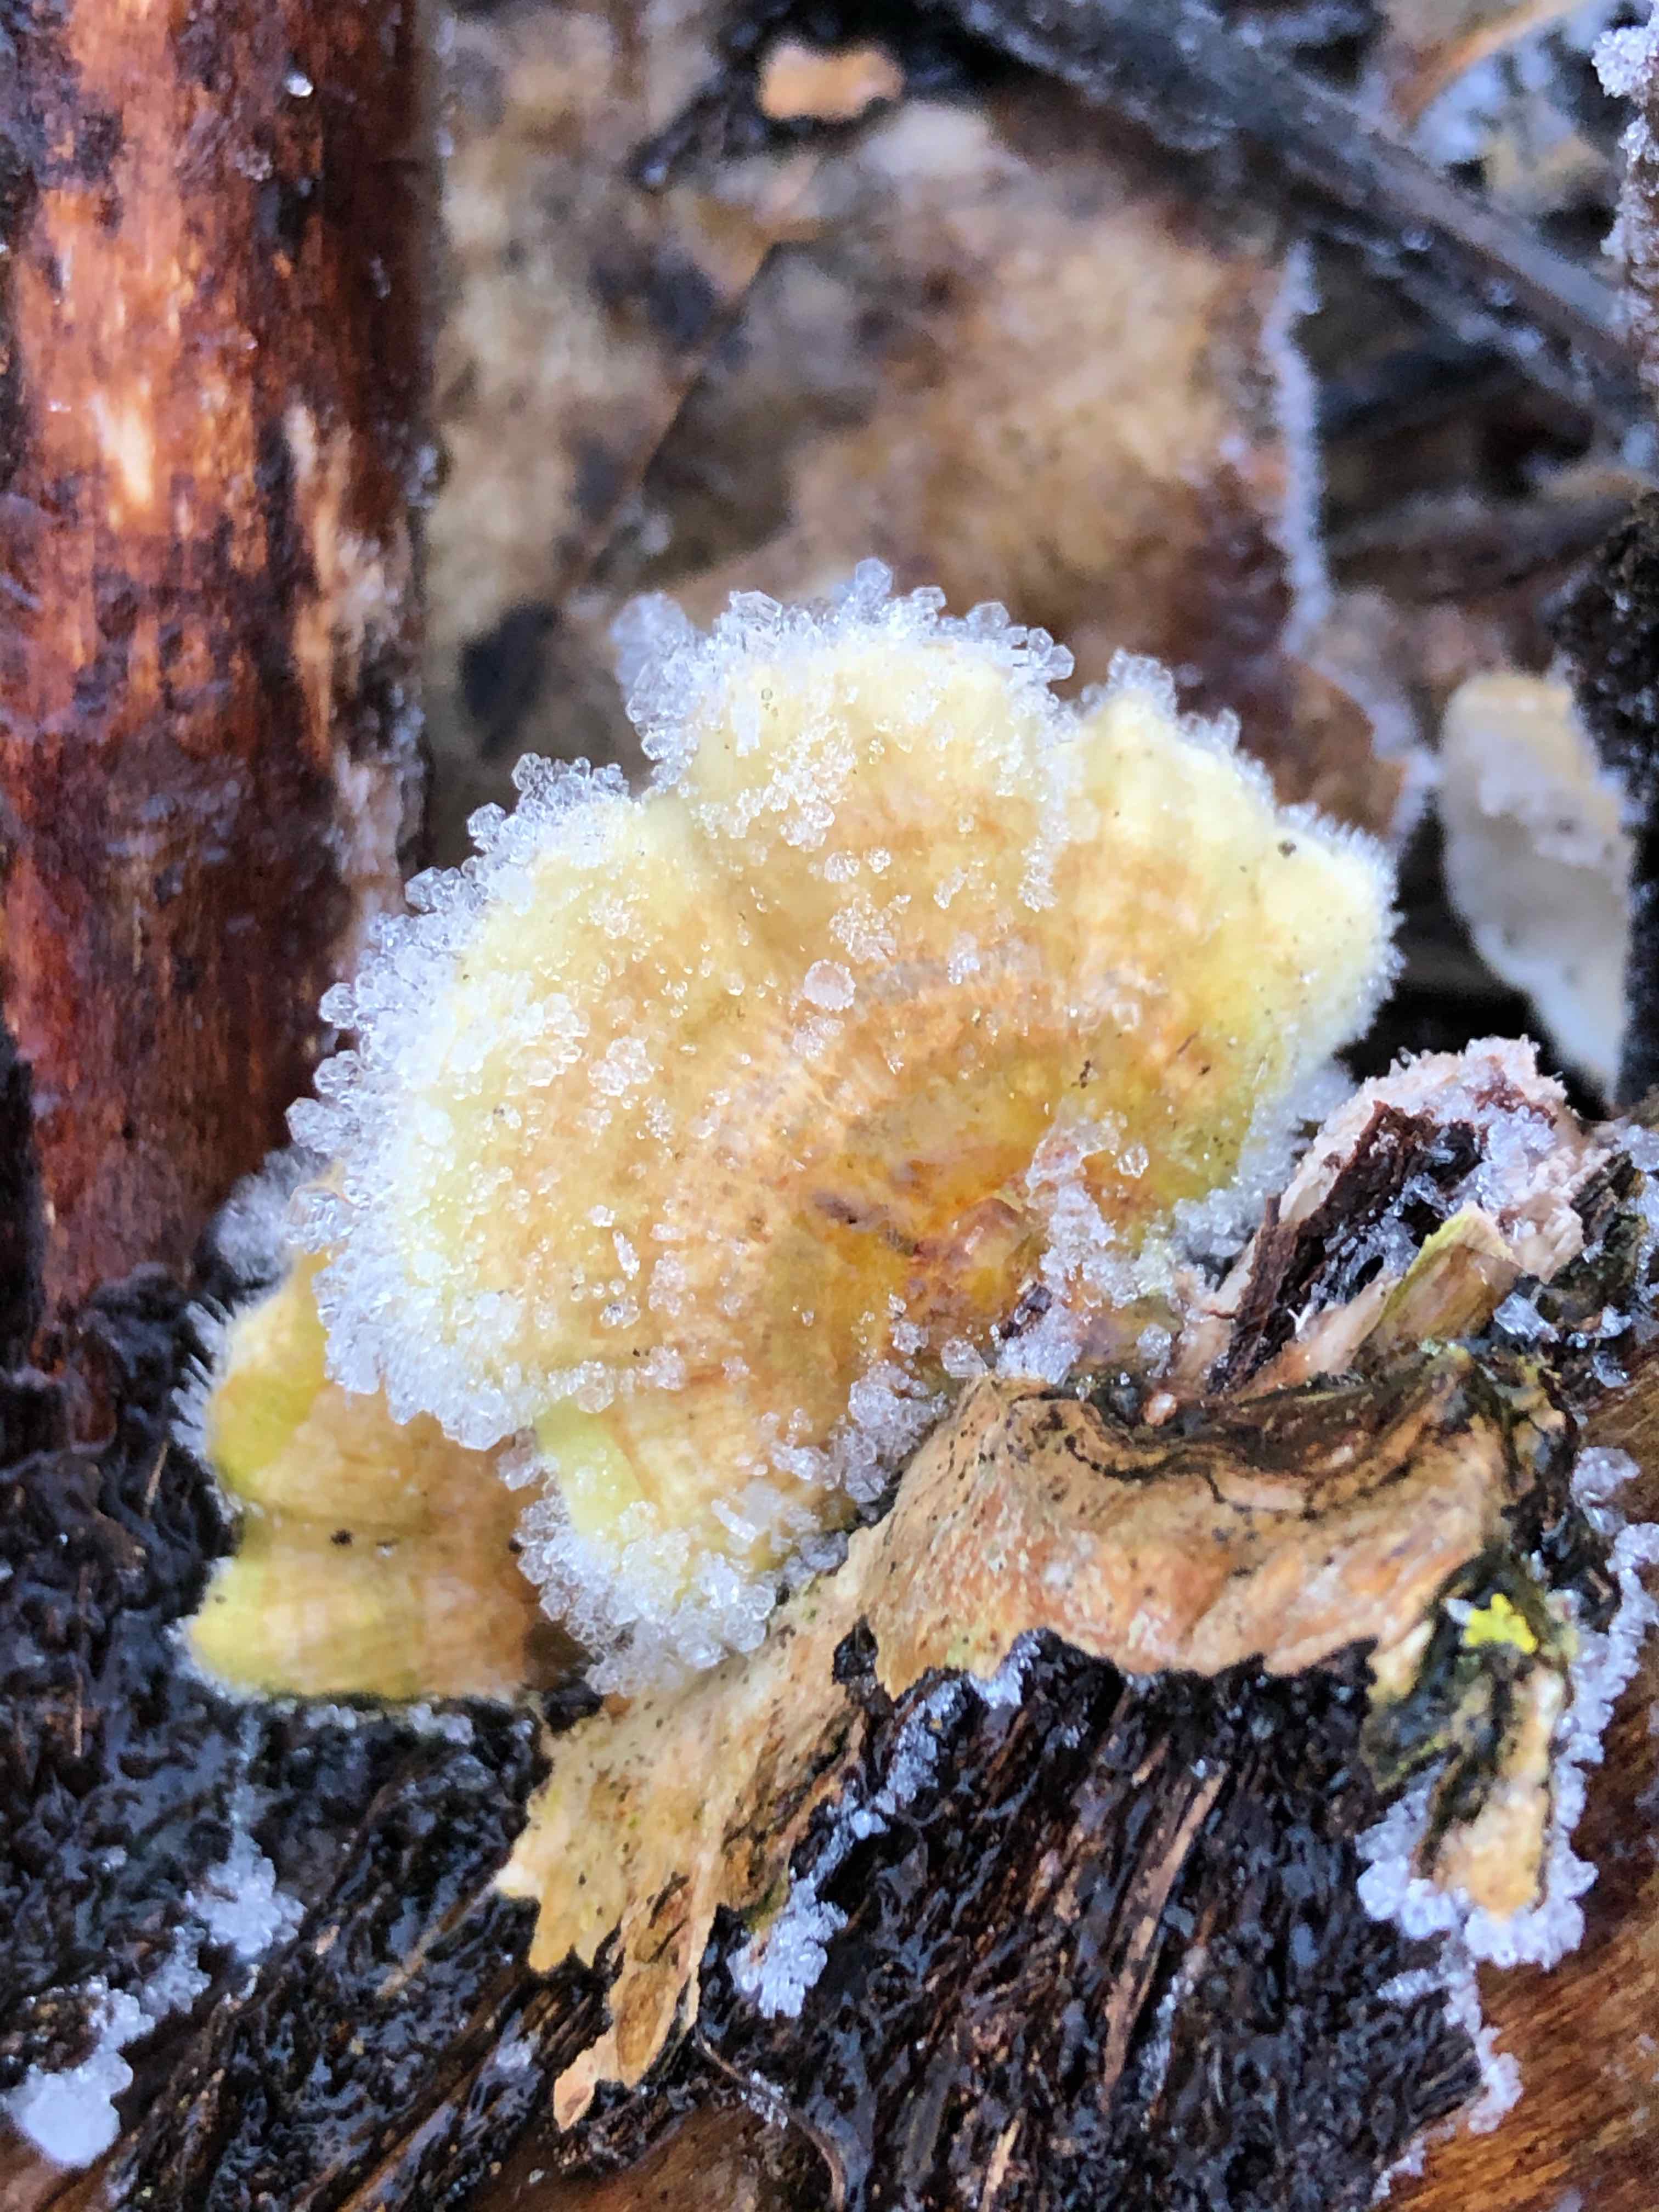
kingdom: Fungi
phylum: Basidiomycota
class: Agaricomycetes
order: Russulales
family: Stereaceae
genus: Stereum
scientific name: Stereum hirsutum
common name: håret lædersvamp
